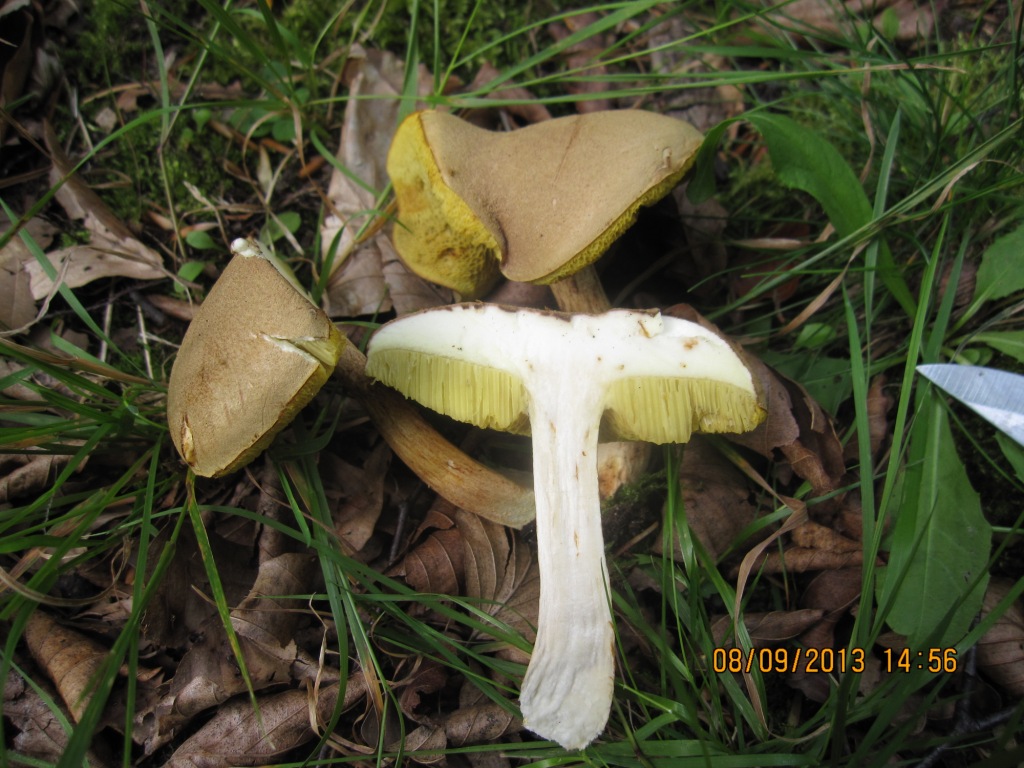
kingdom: Fungi
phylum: Basidiomycota
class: Agaricomycetes
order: Boletales
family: Boletaceae
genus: Xerocomus
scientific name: Xerocomus ferrugineus
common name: vaskeskinds-rørhat
